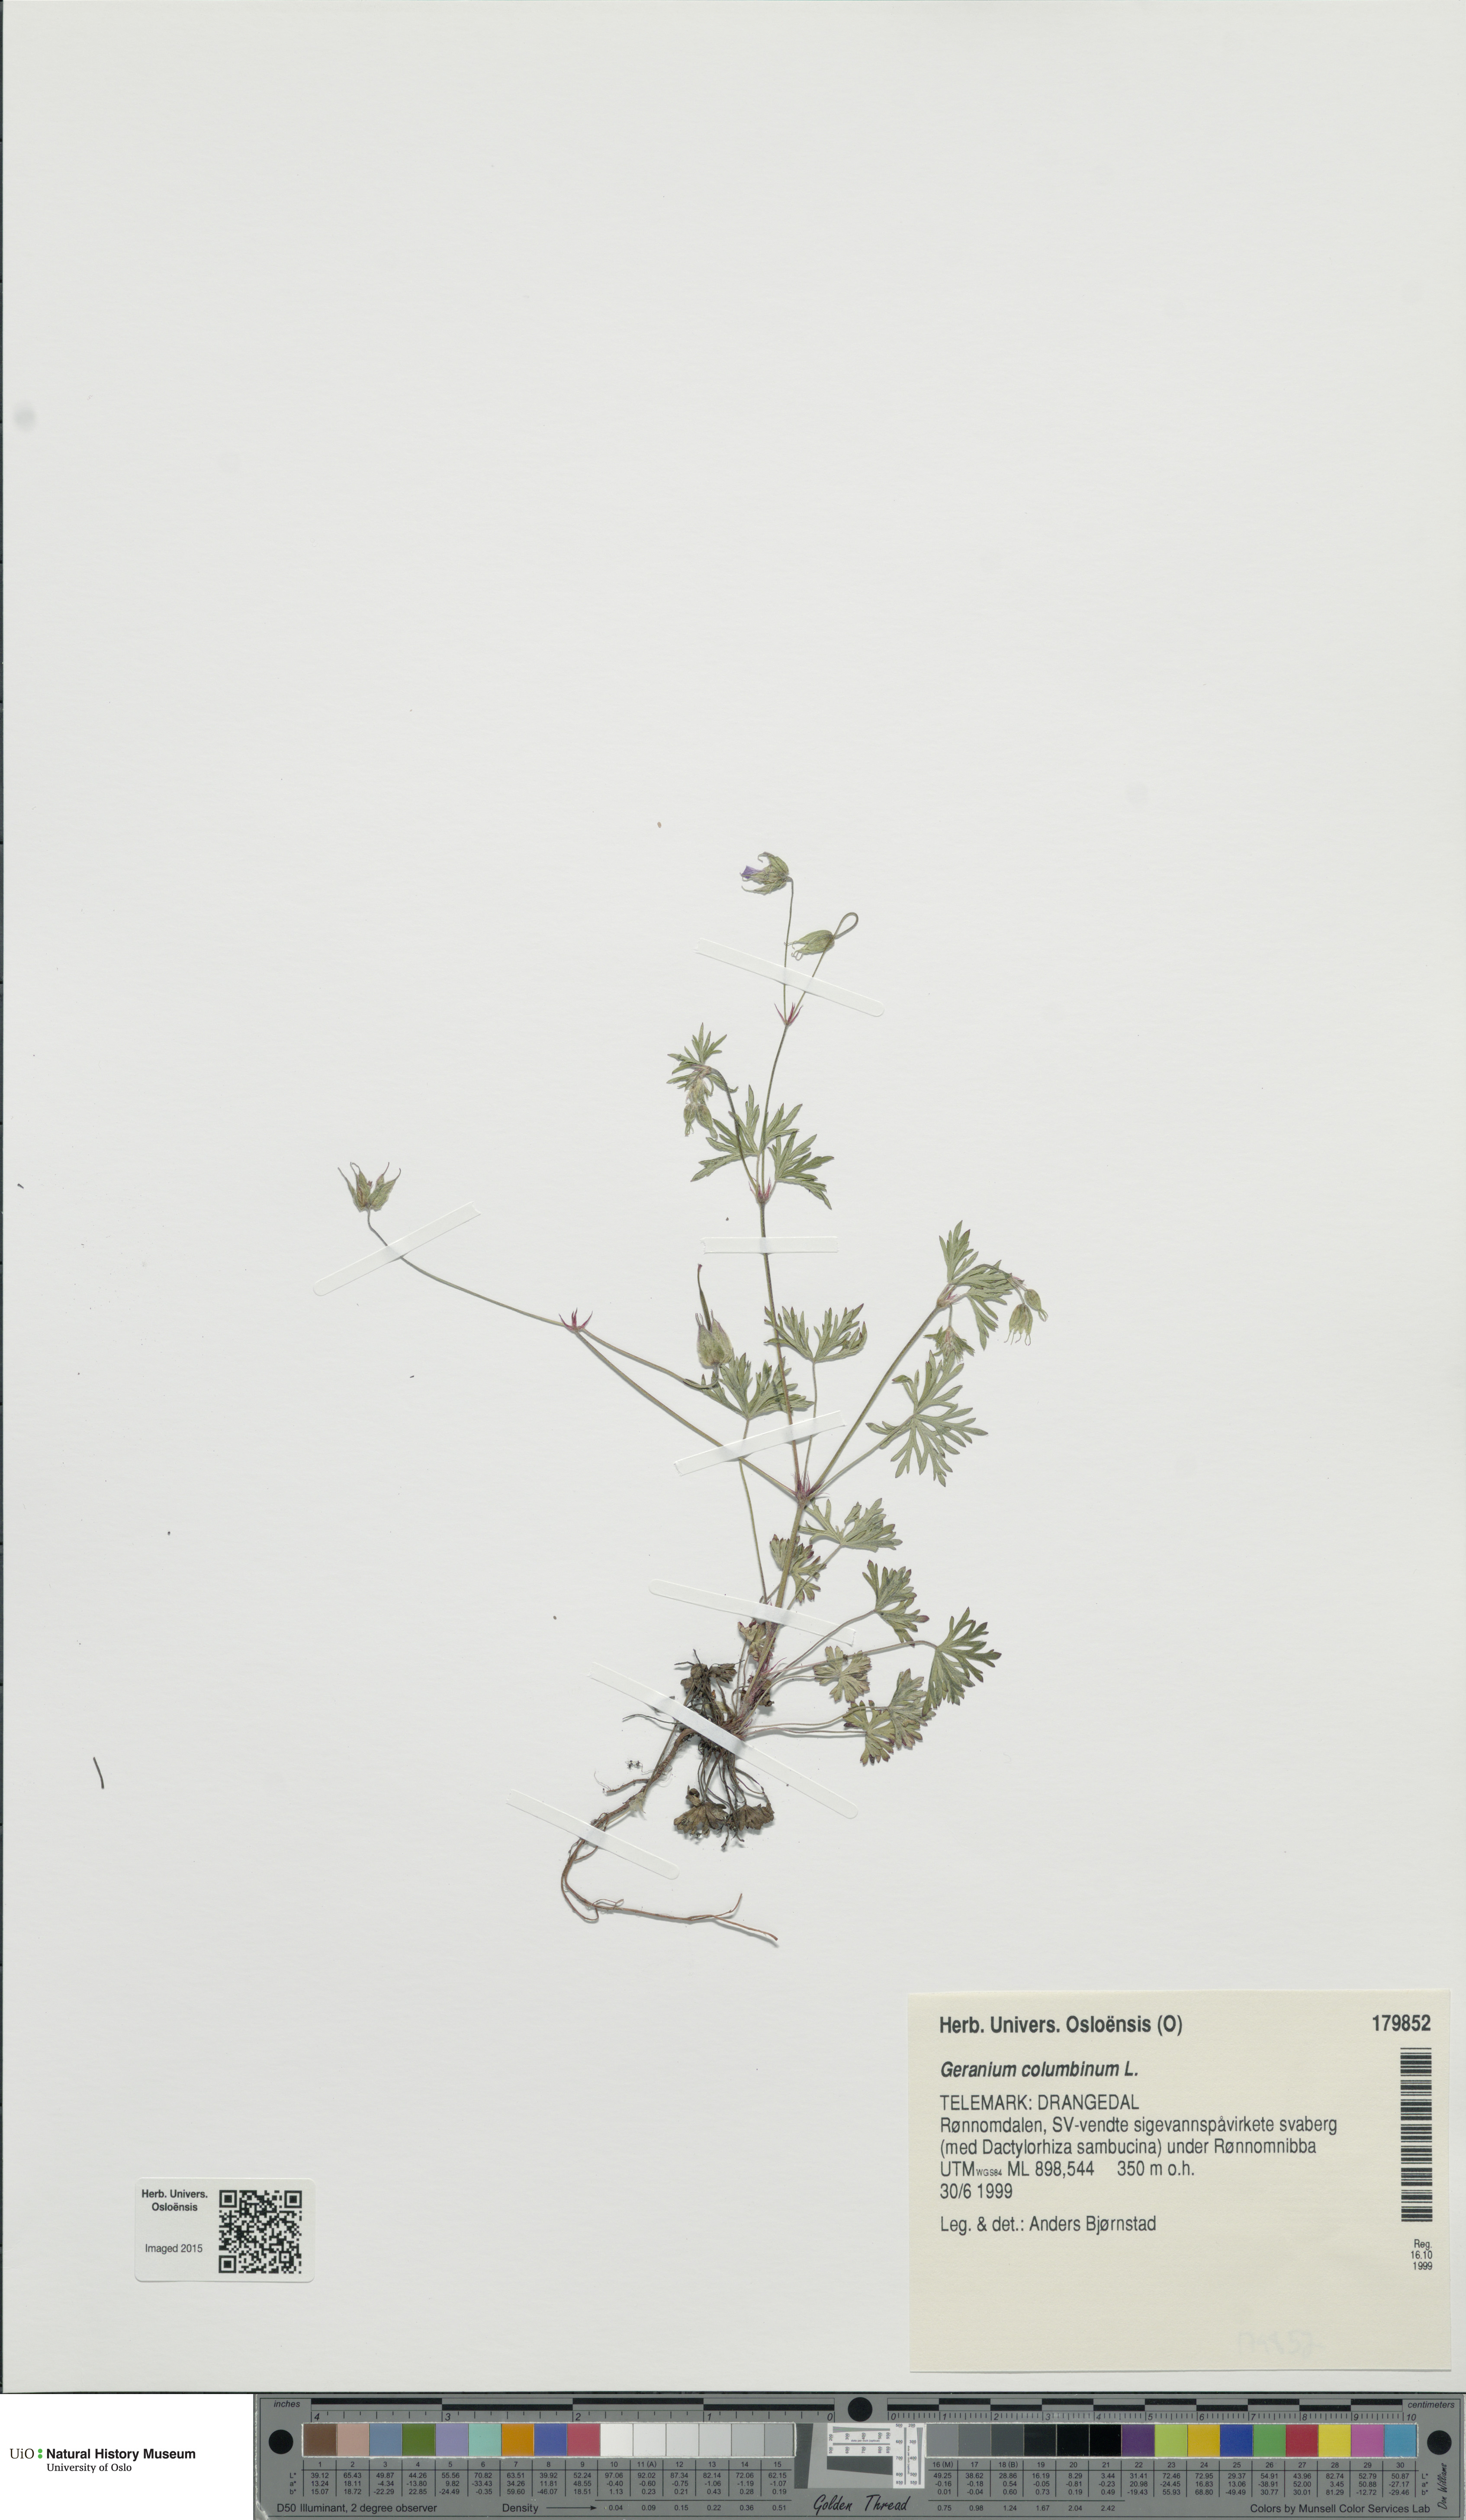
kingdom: Plantae
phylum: Tracheophyta
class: Magnoliopsida
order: Geraniales
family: Geraniaceae
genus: Geranium
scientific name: Geranium columbinum
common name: Long-stalked crane's-bill
